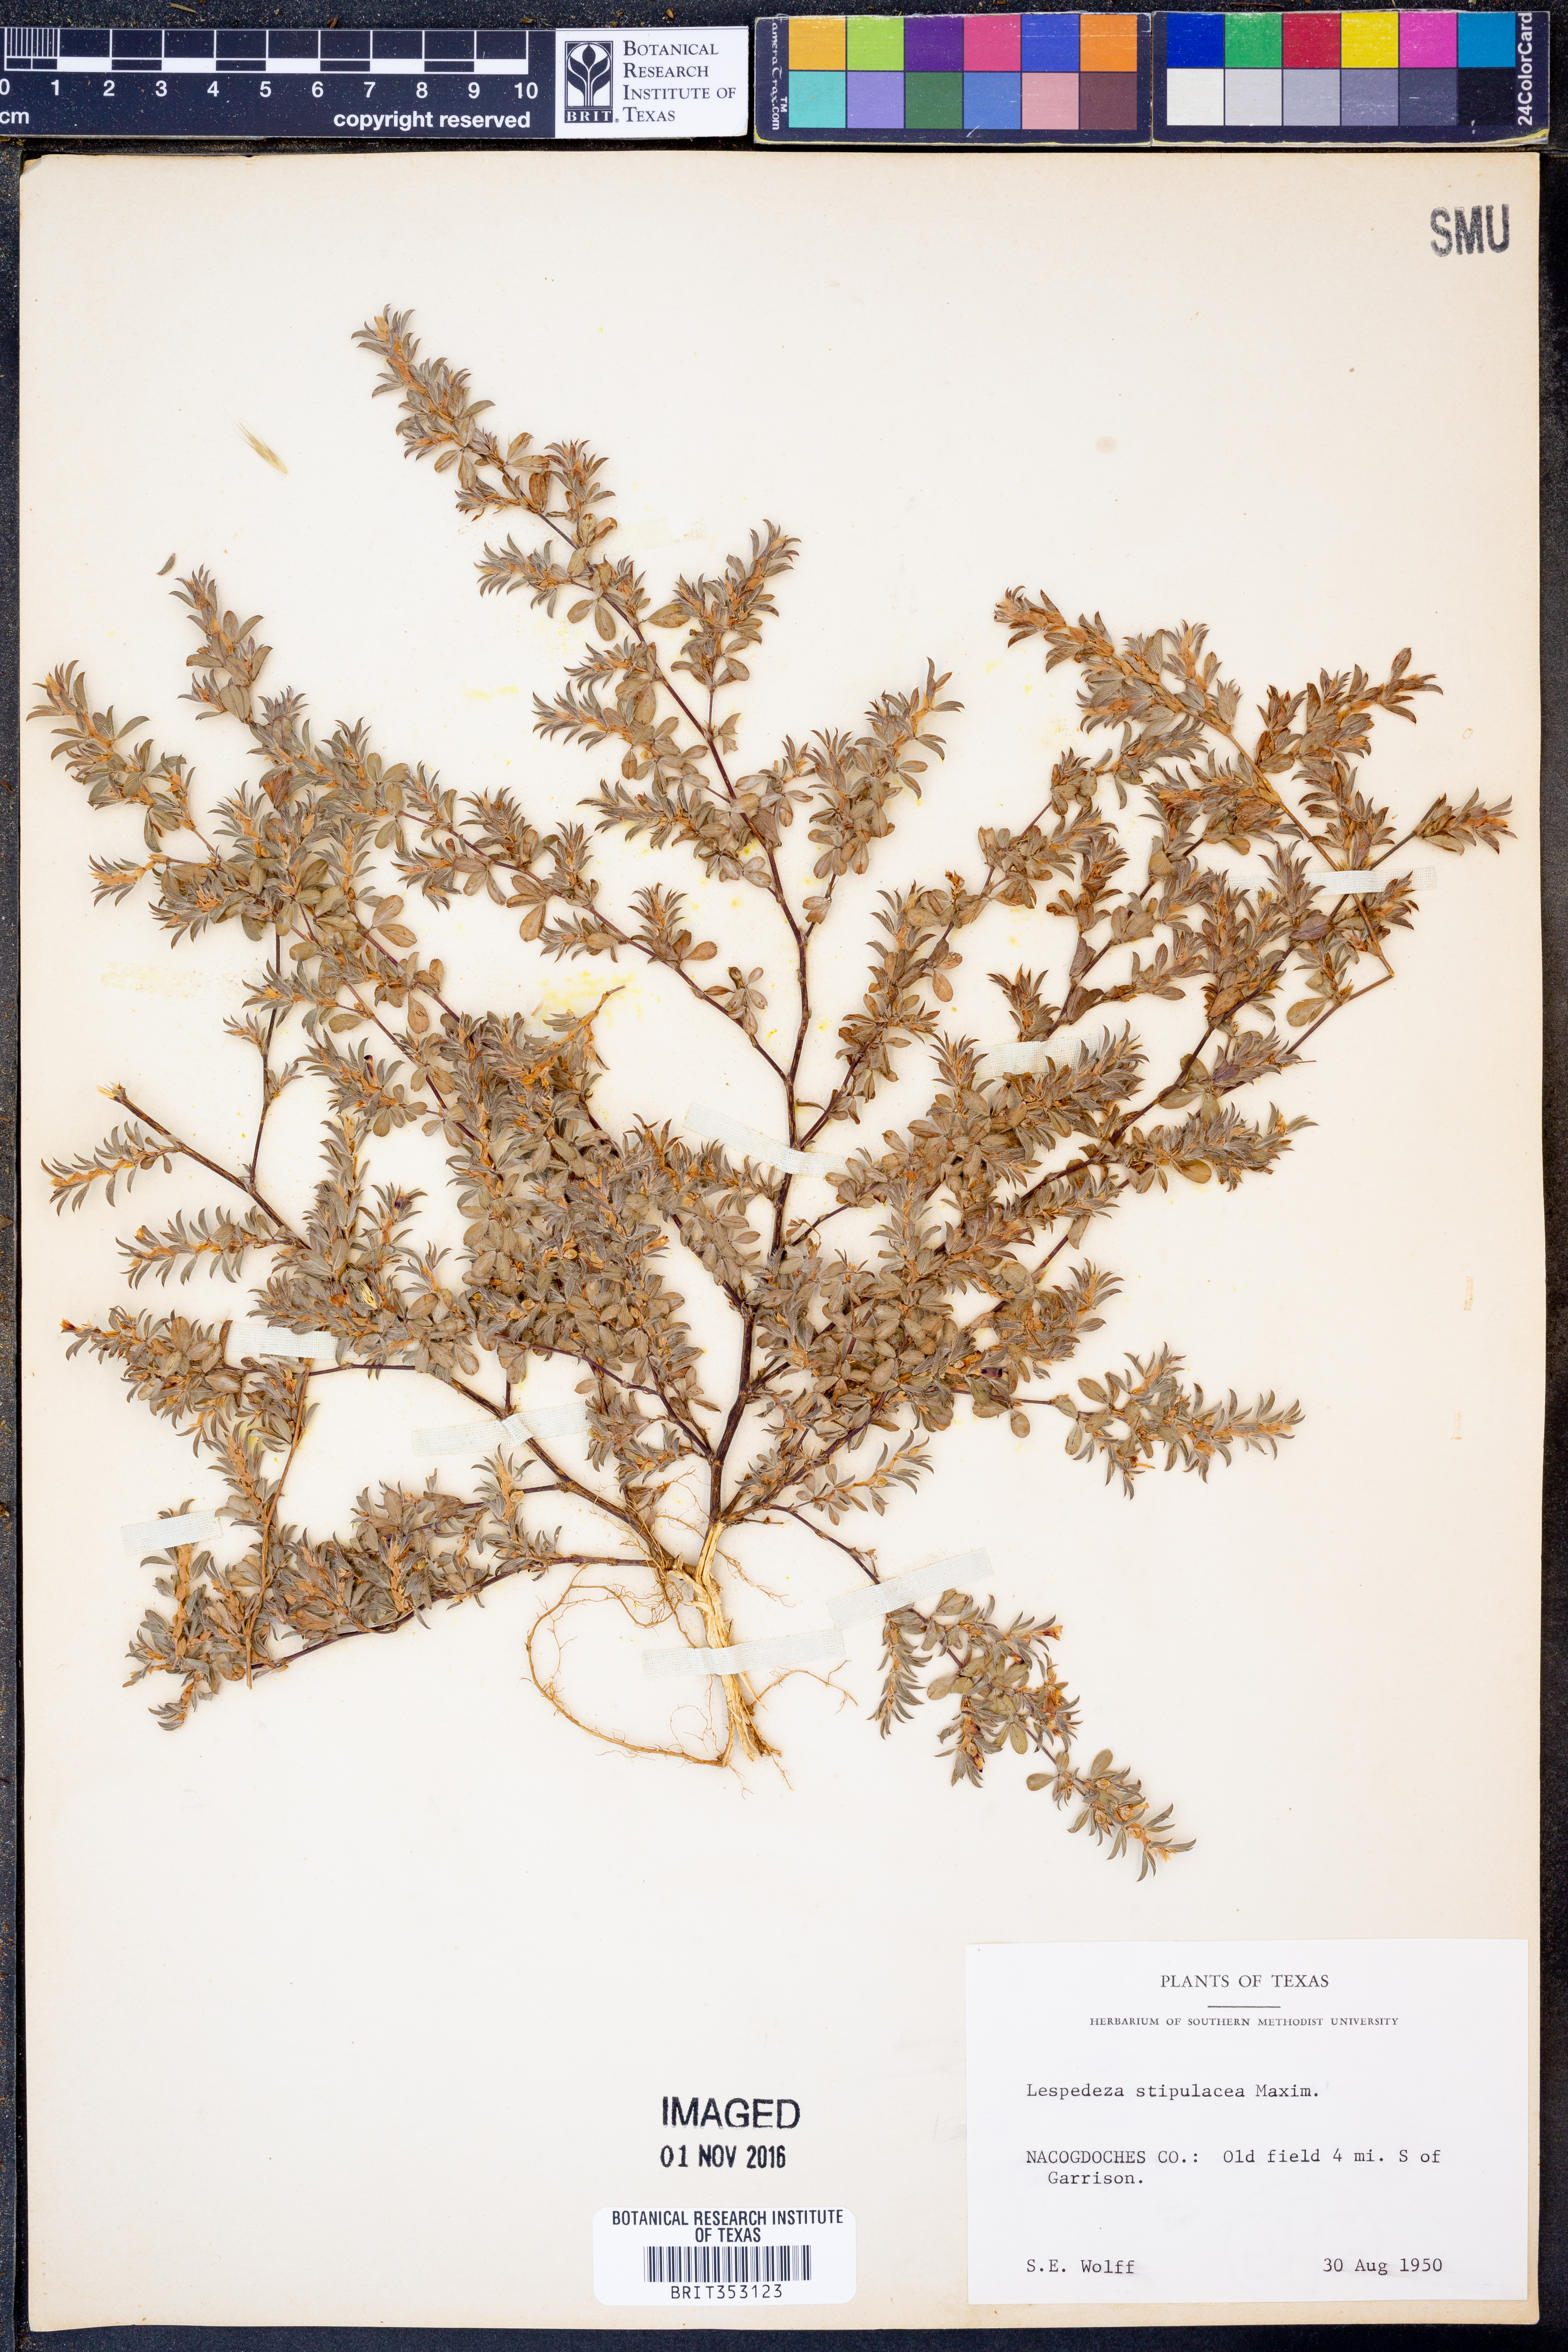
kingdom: Plantae
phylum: Tracheophyta
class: Magnoliopsida
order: Fabales
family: Fabaceae
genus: Kummerowia
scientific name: Kummerowia stipulacea
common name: Korean clover
